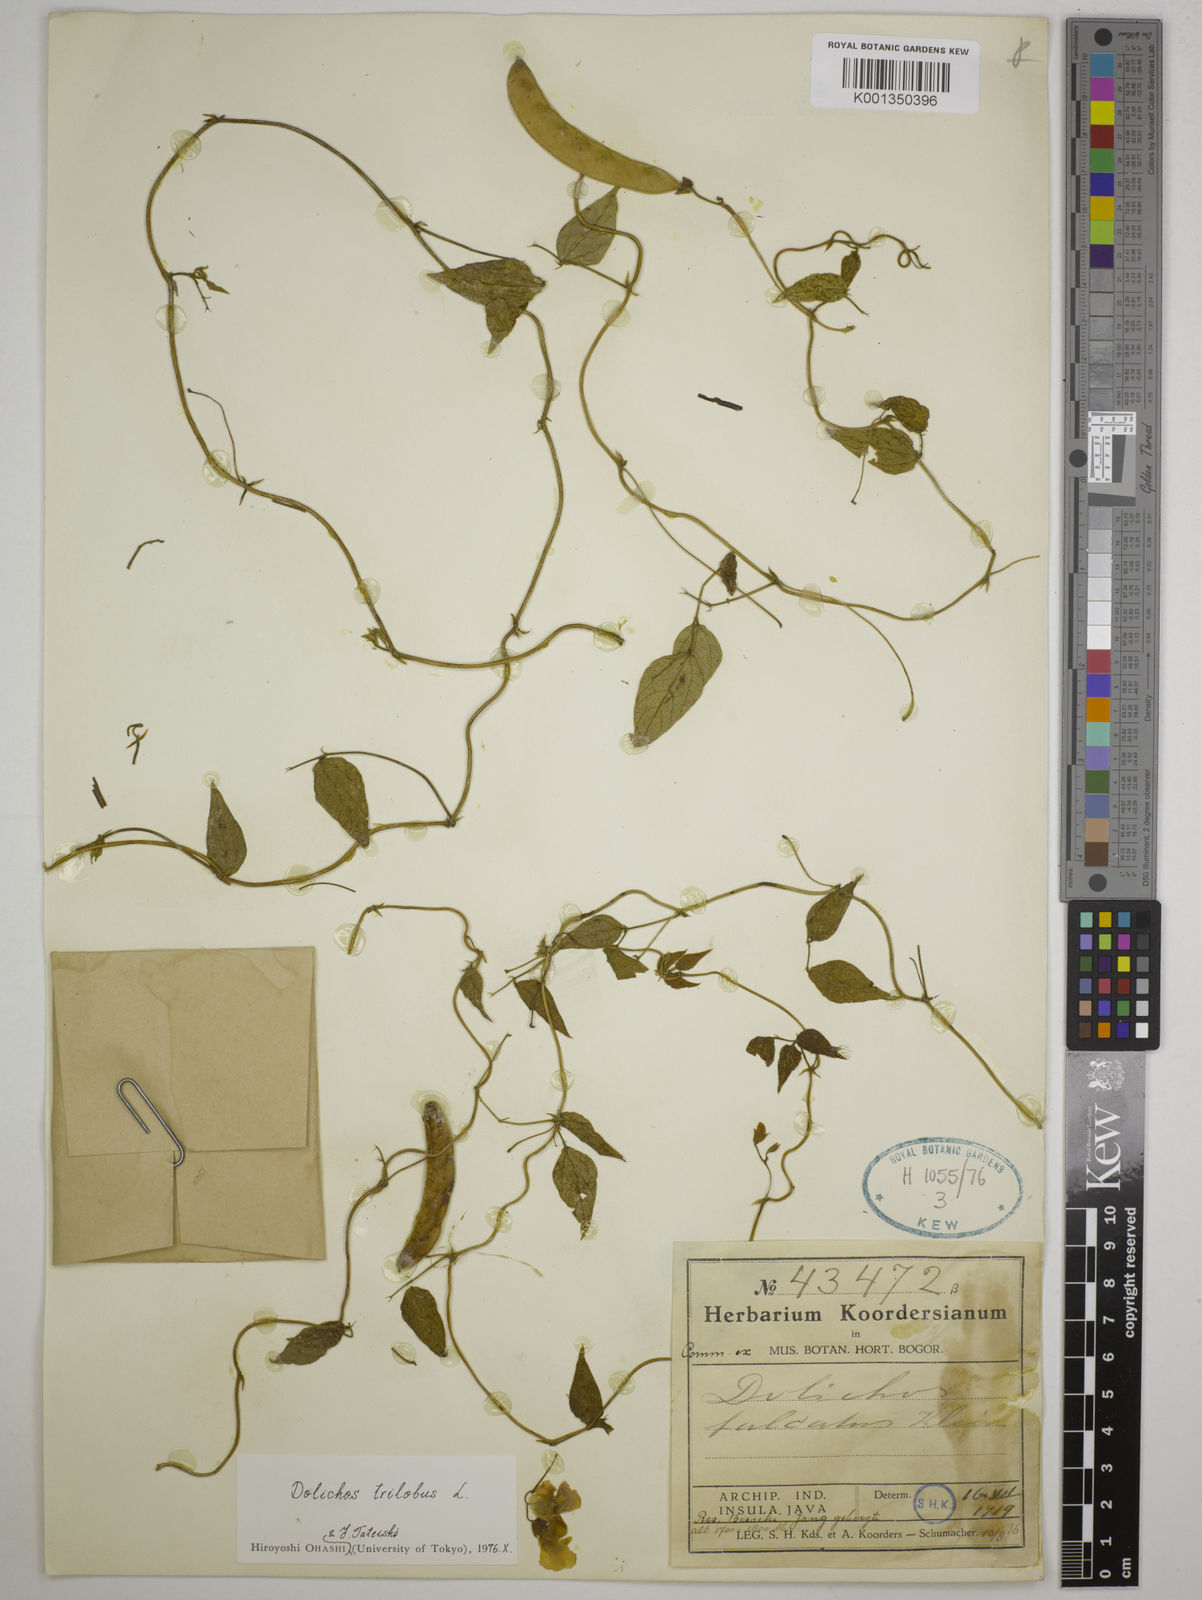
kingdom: Plantae
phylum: Tracheophyta
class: Magnoliopsida
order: Fabales
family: Fabaceae
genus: Dolichos
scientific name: Dolichos
